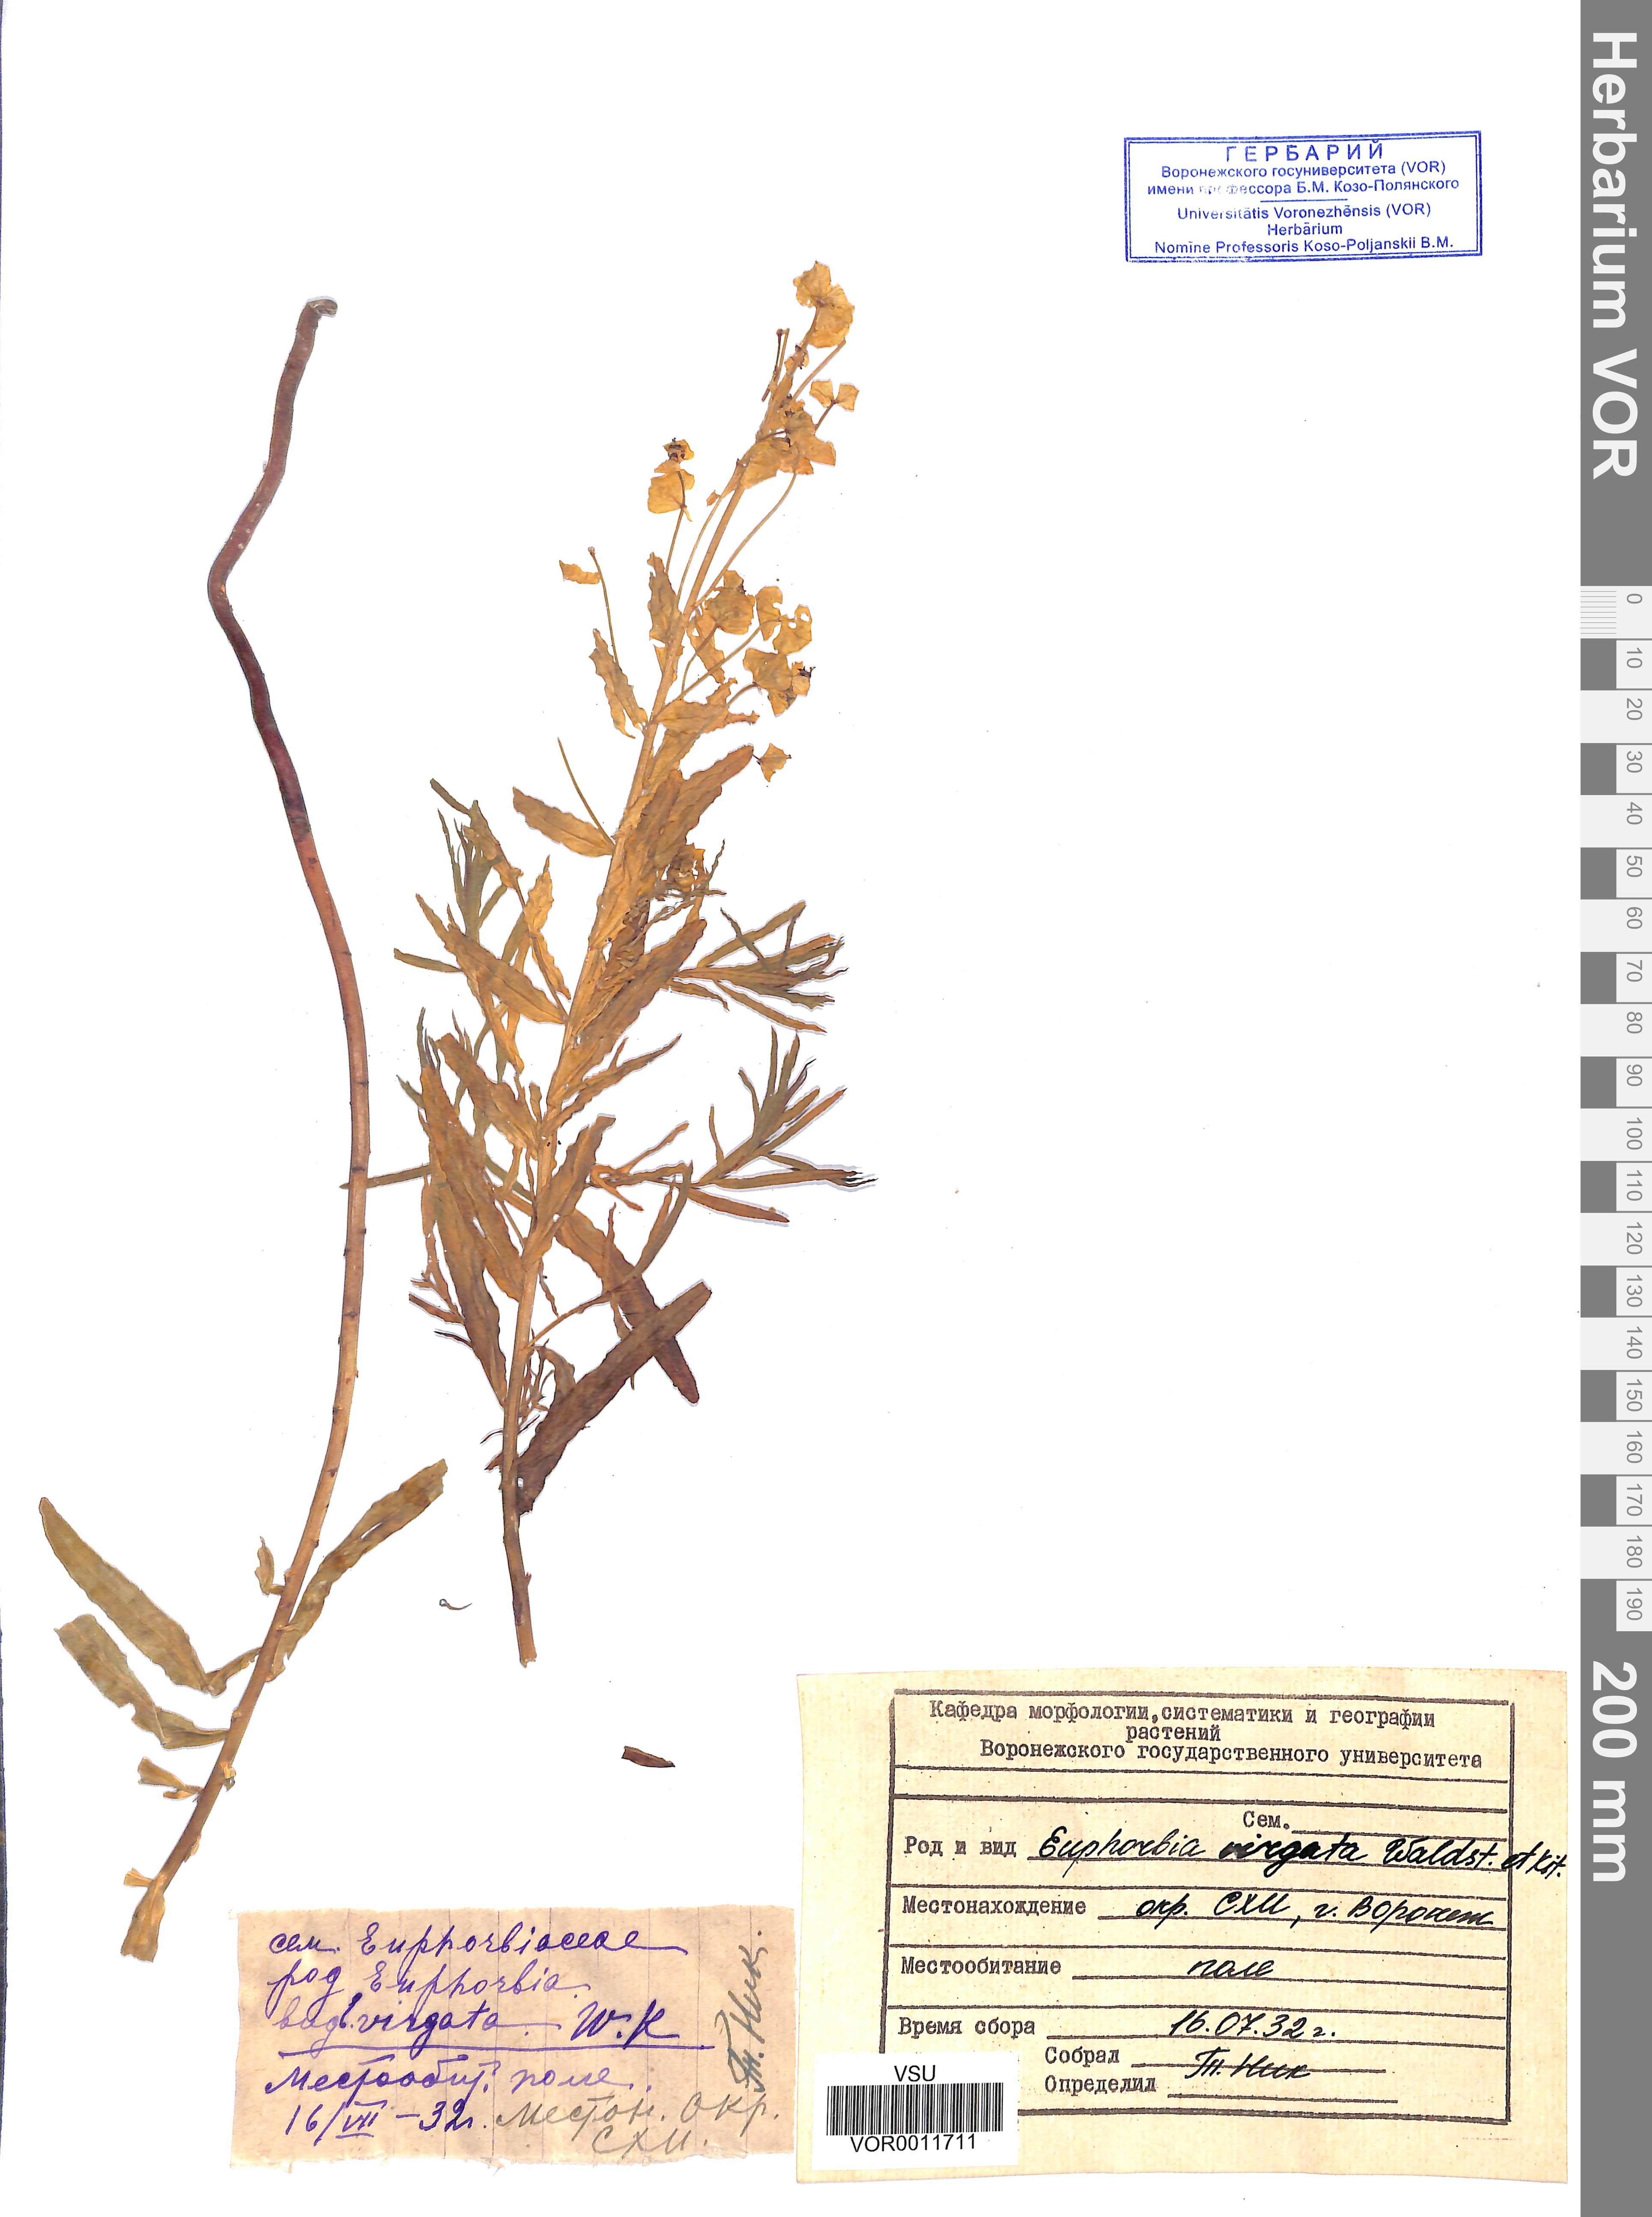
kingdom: Plantae
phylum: Tracheophyta
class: Magnoliopsida
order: Malpighiales
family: Euphorbiaceae
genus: Euphorbia
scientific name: Euphorbia virgata
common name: Leafy spurge
